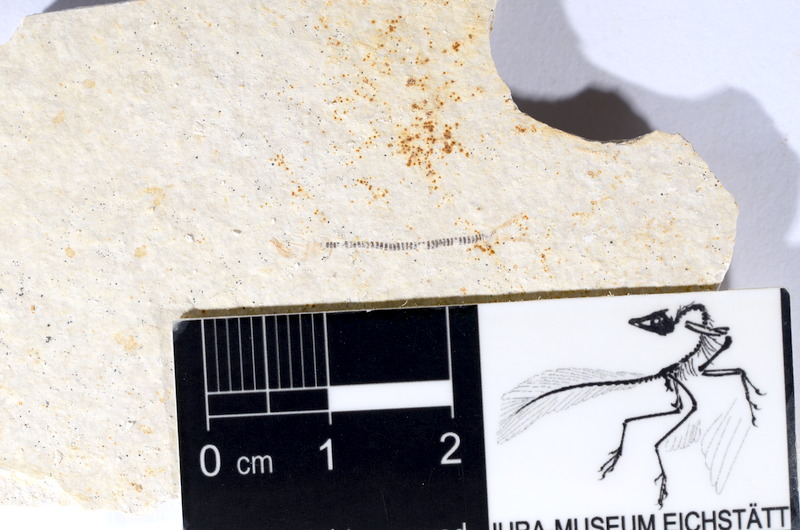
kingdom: Animalia
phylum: Chordata
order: Salmoniformes
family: Orthogonikleithridae
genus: Orthogonikleithrus
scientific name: Orthogonikleithrus hoelli
